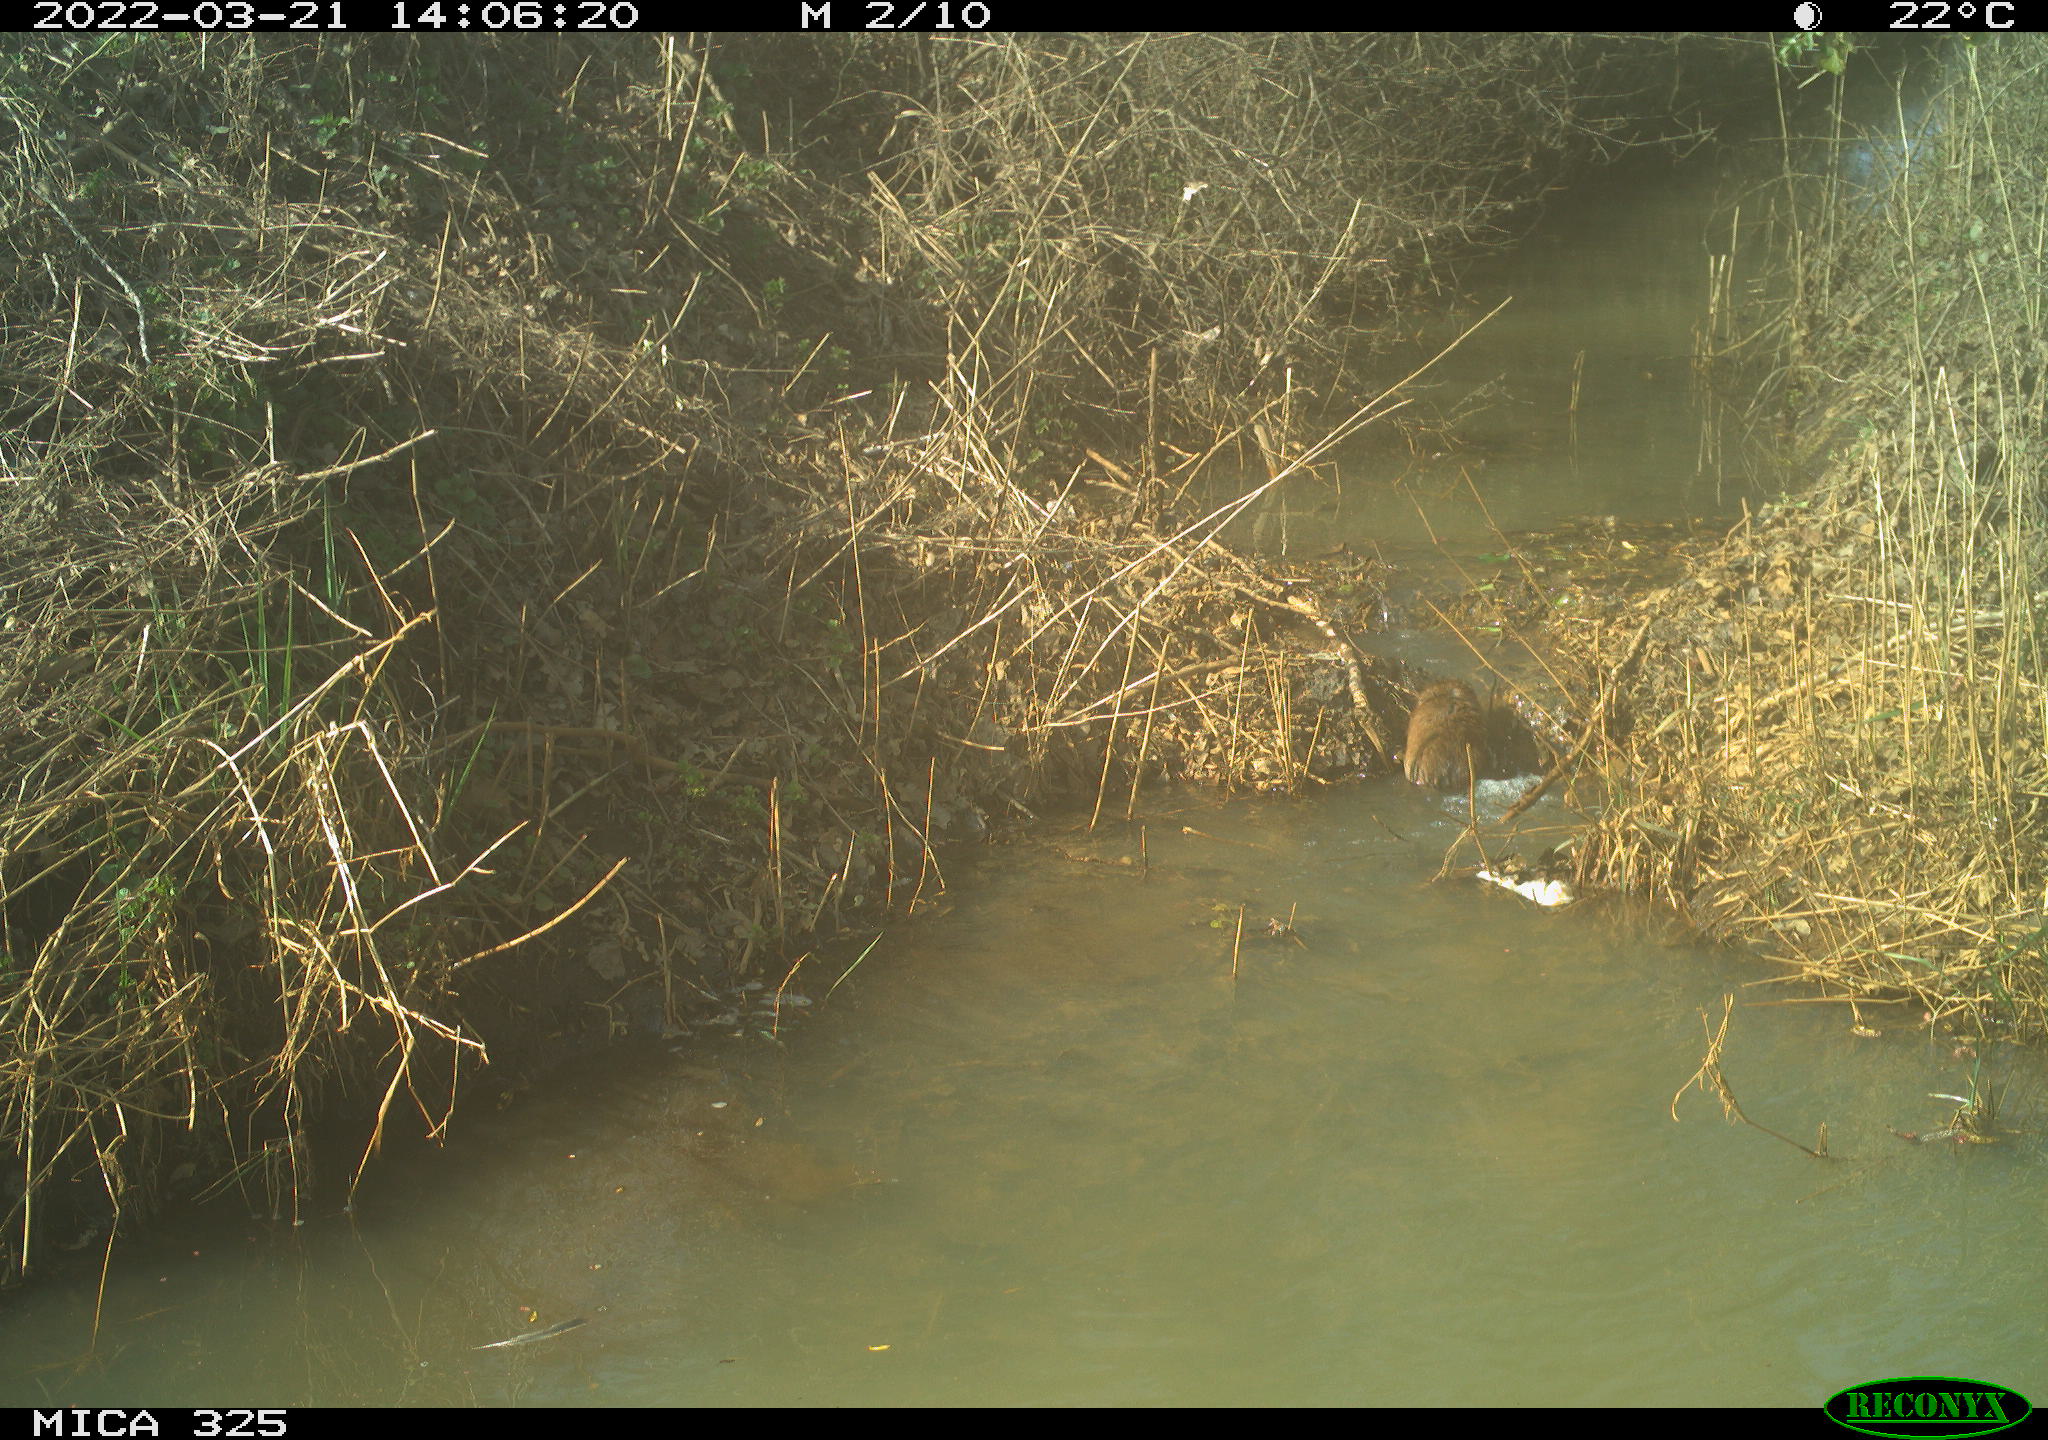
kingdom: Animalia
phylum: Chordata
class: Mammalia
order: Rodentia
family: Cricetidae
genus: Ondatra
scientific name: Ondatra zibethicus
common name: Muskrat
